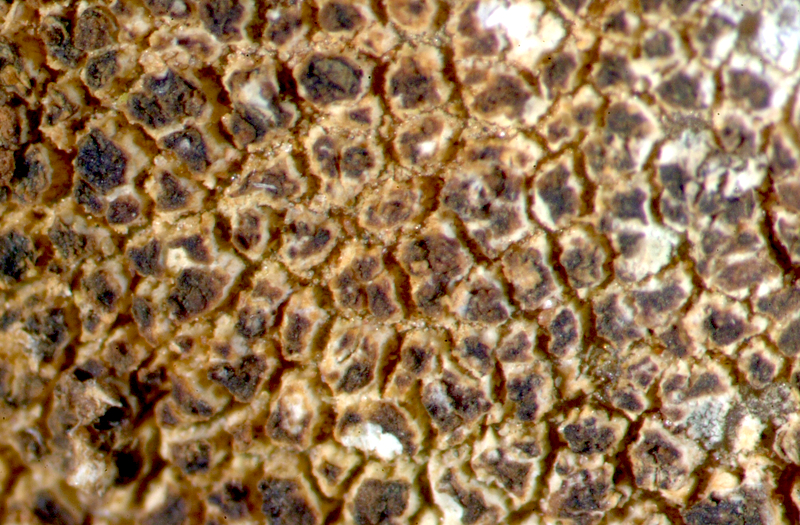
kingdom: Fungi
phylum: Ascomycota
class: Lecanoromycetes
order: Caliciales
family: Caliciaceae
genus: Buellia
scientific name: Buellia
